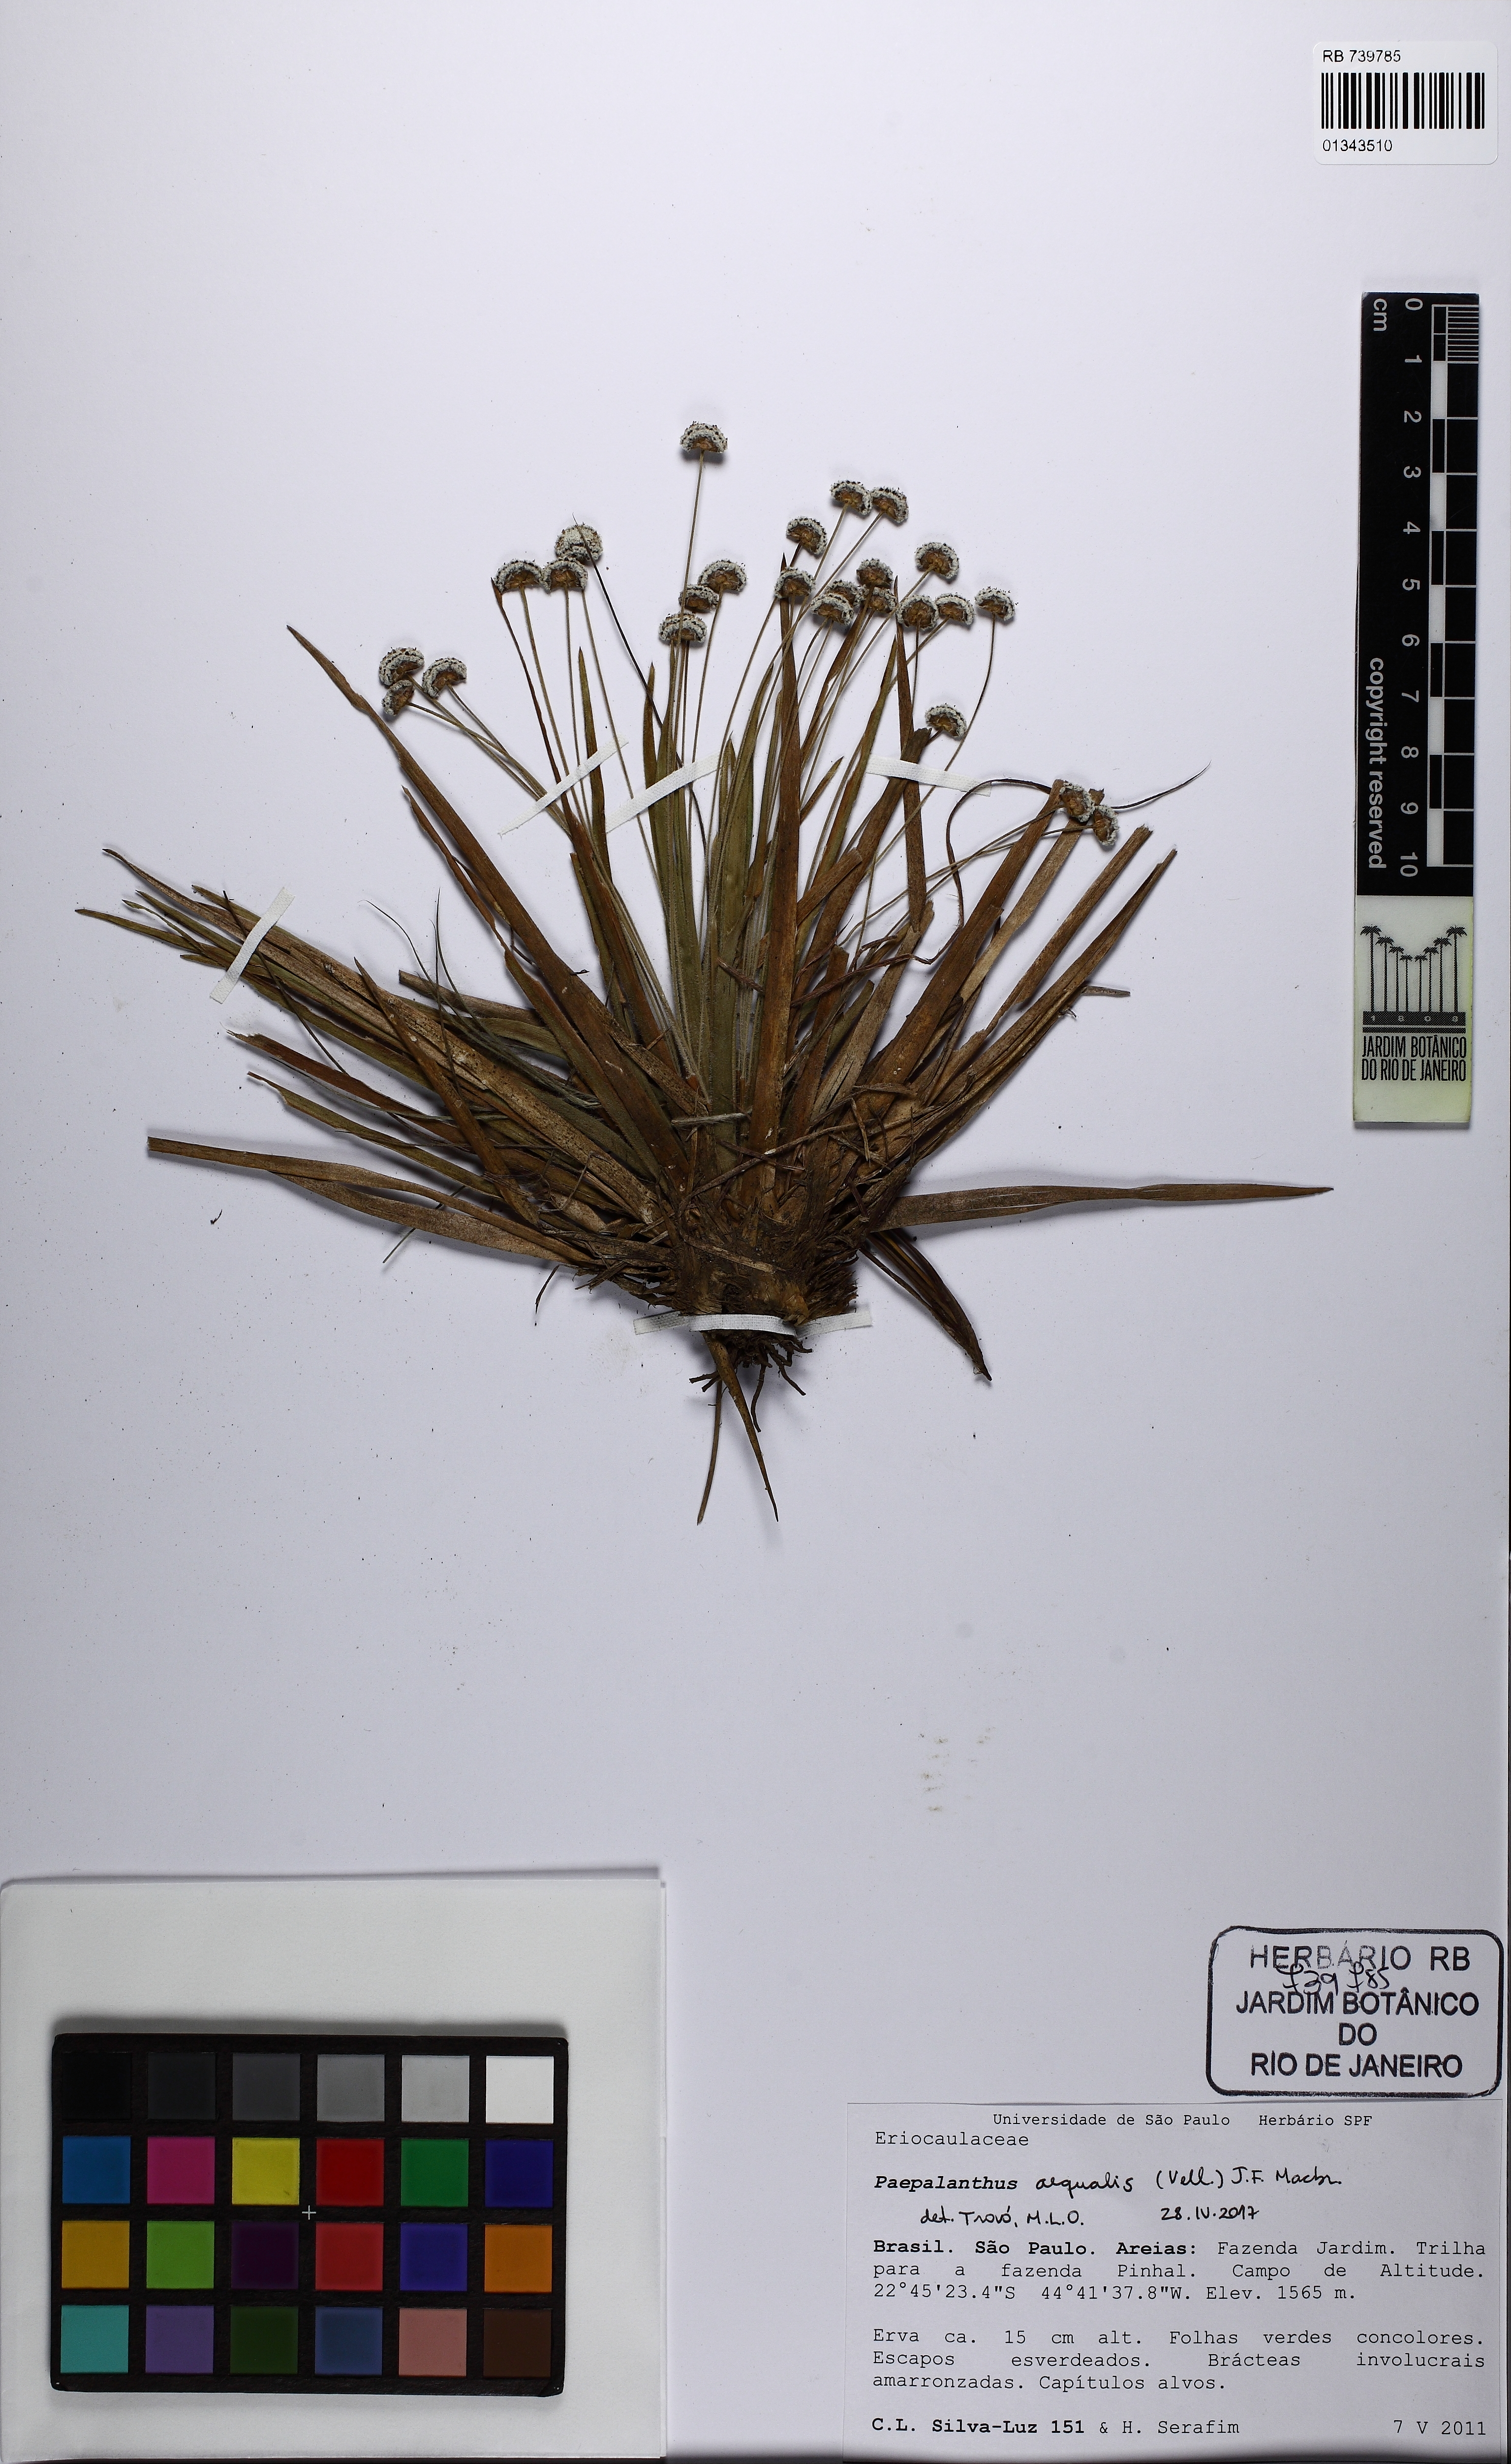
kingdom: Plantae
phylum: Tracheophyta
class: Liliopsida
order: Poales
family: Eriocaulaceae
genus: Paepalanthus
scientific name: Paepalanthus aequalis
